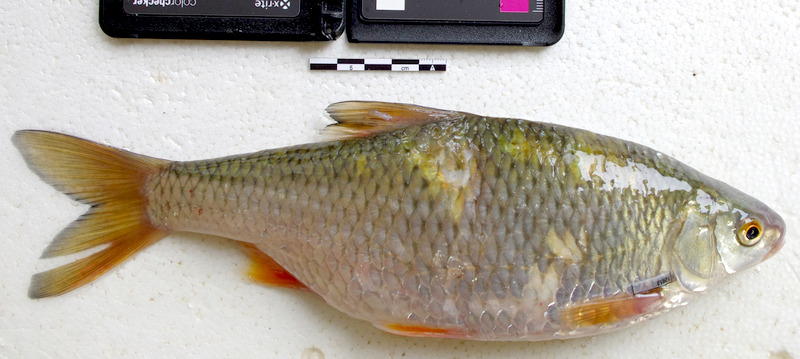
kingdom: Animalia
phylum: Chordata
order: Cypriniformes
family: Cyprinidae
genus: Rutilus
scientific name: Rutilus rutilus
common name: Roach
